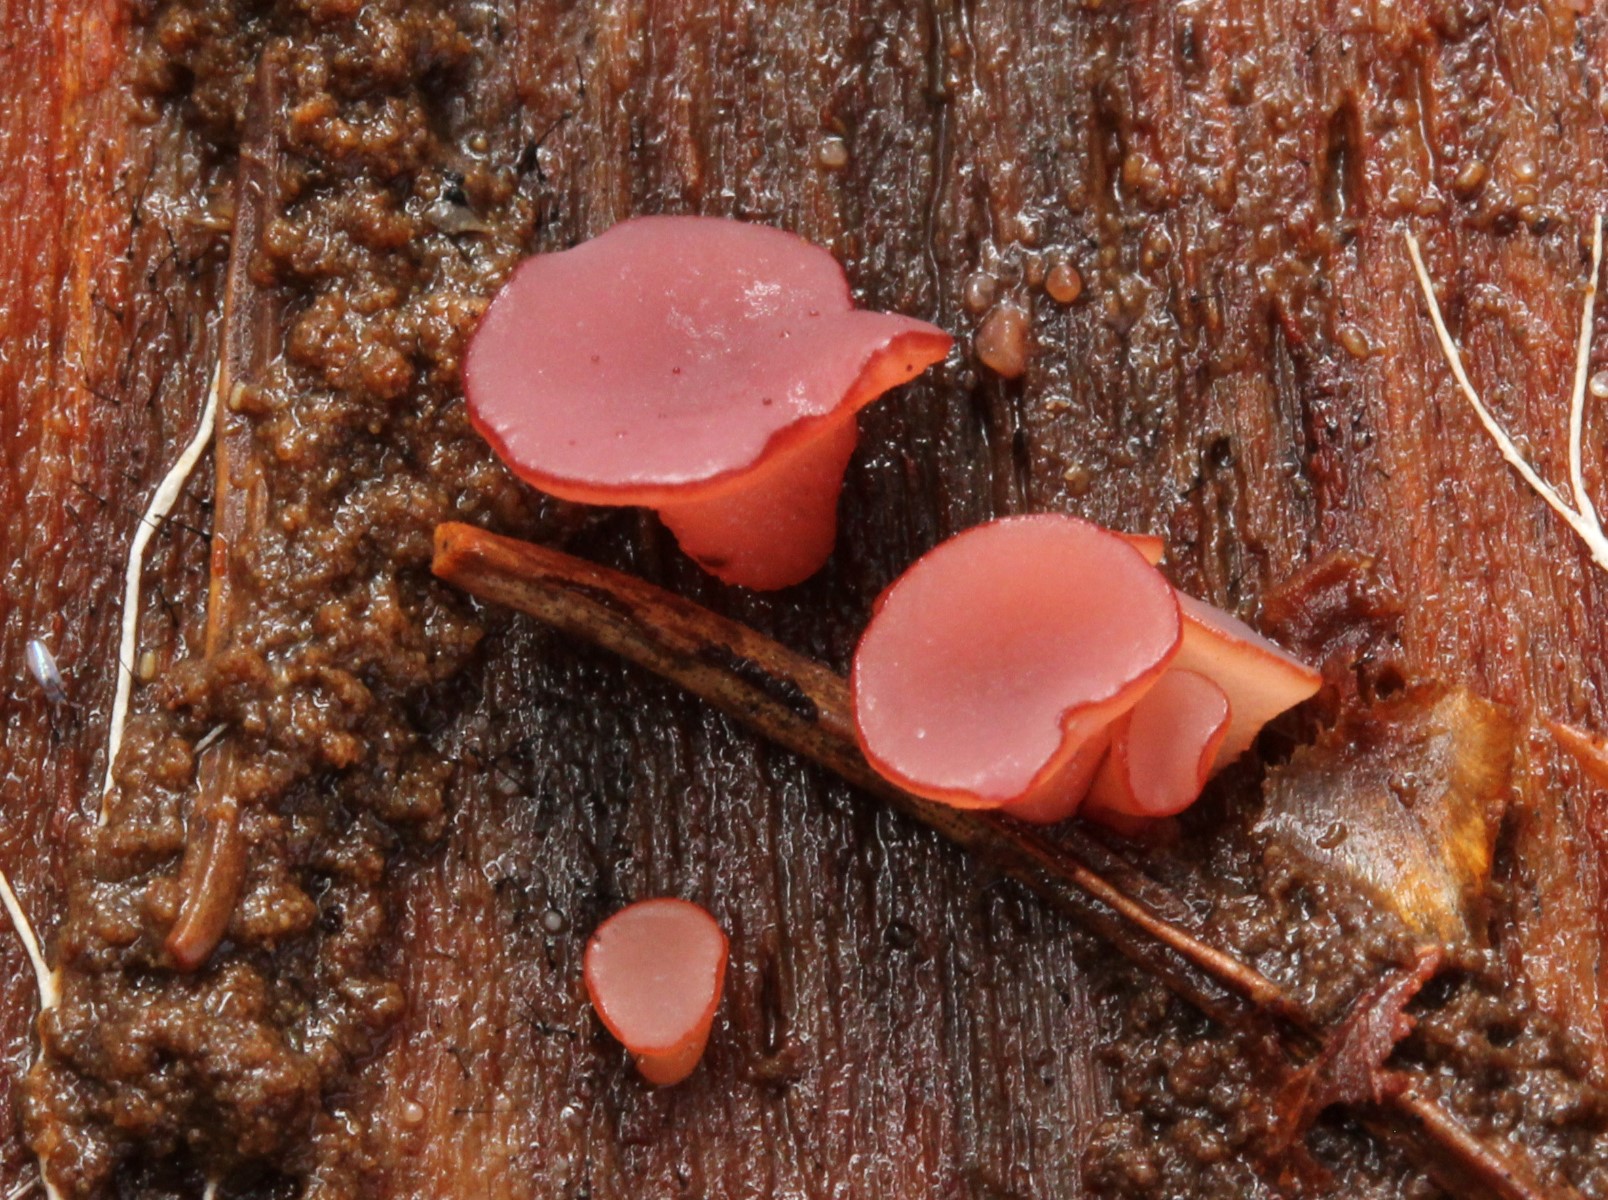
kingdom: Fungi
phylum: Ascomycota
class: Leotiomycetes
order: Helotiales
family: Gelatinodiscaceae
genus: Ascocoryne
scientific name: Ascocoryne
